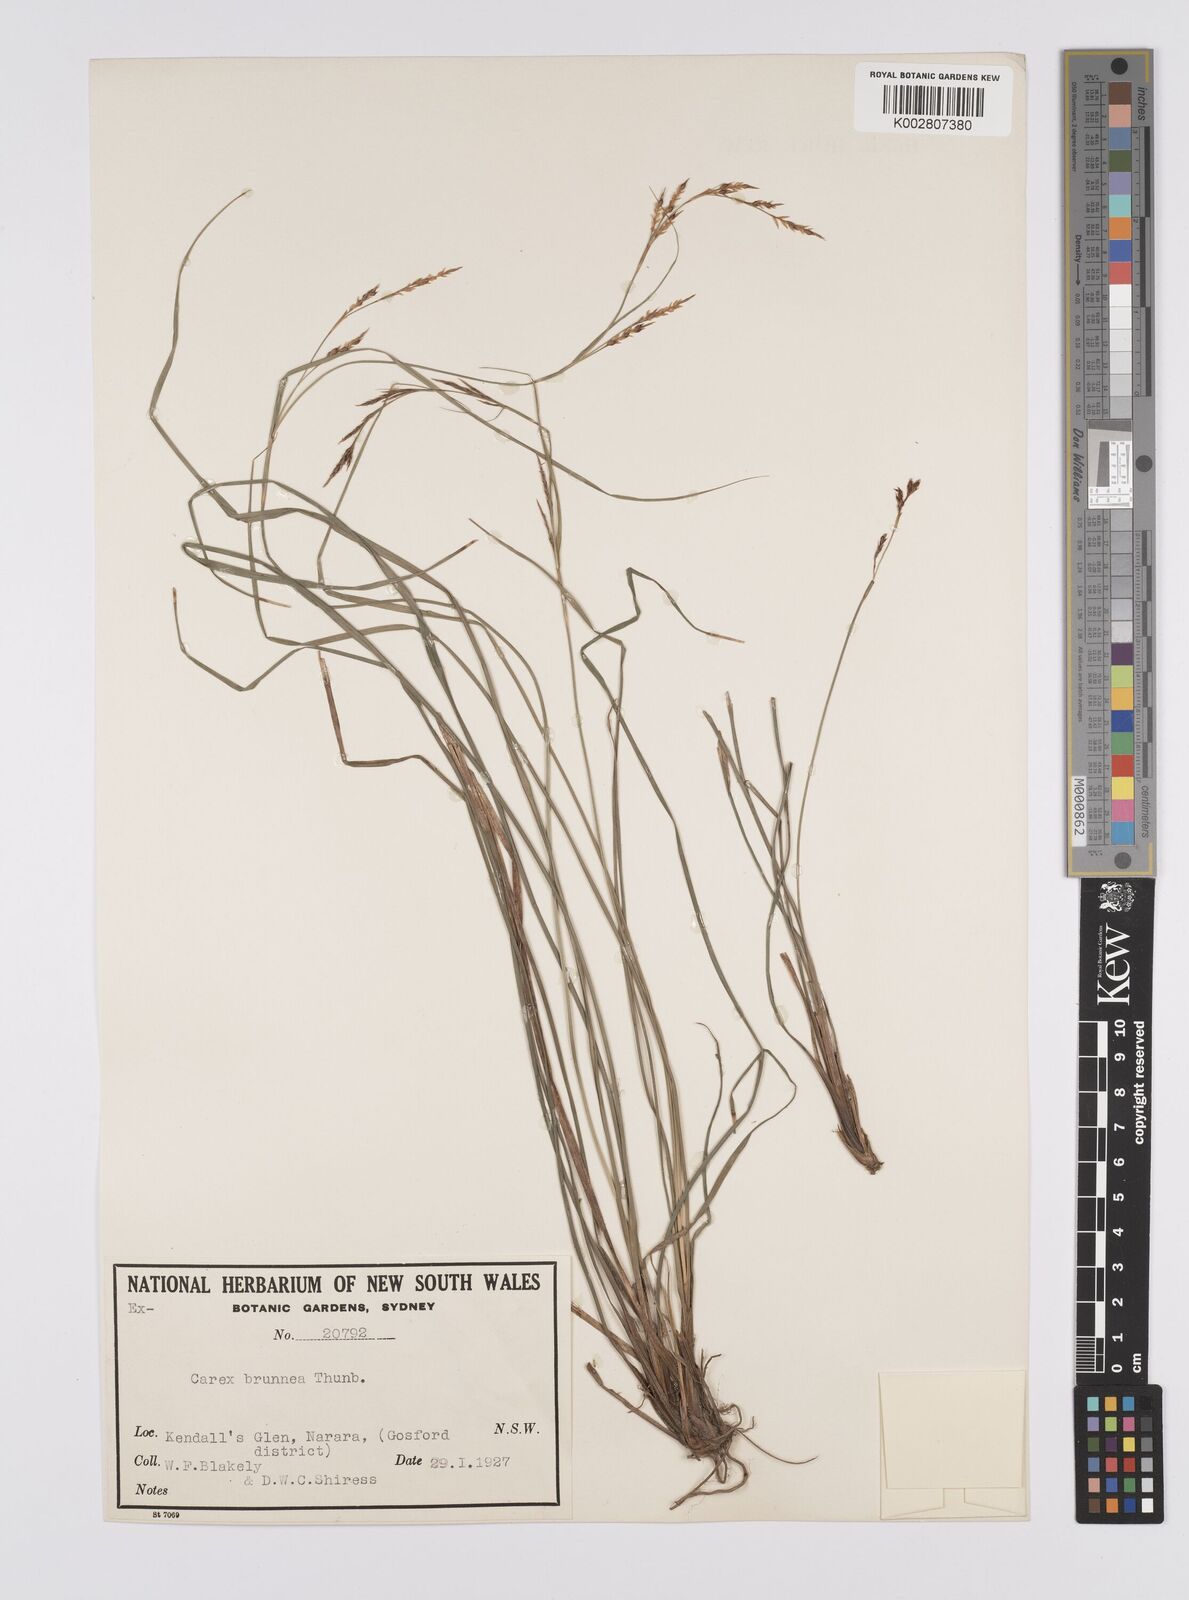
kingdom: Plantae
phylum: Tracheophyta
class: Liliopsida
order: Poales
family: Cyperaceae
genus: Carex
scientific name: Carex brunnea
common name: Greater brown sedge
